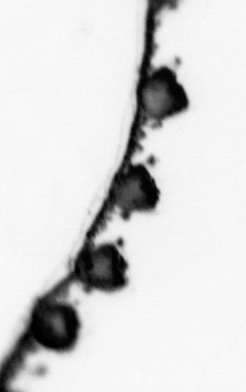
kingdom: Animalia
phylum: Cnidaria
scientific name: Cnidaria
